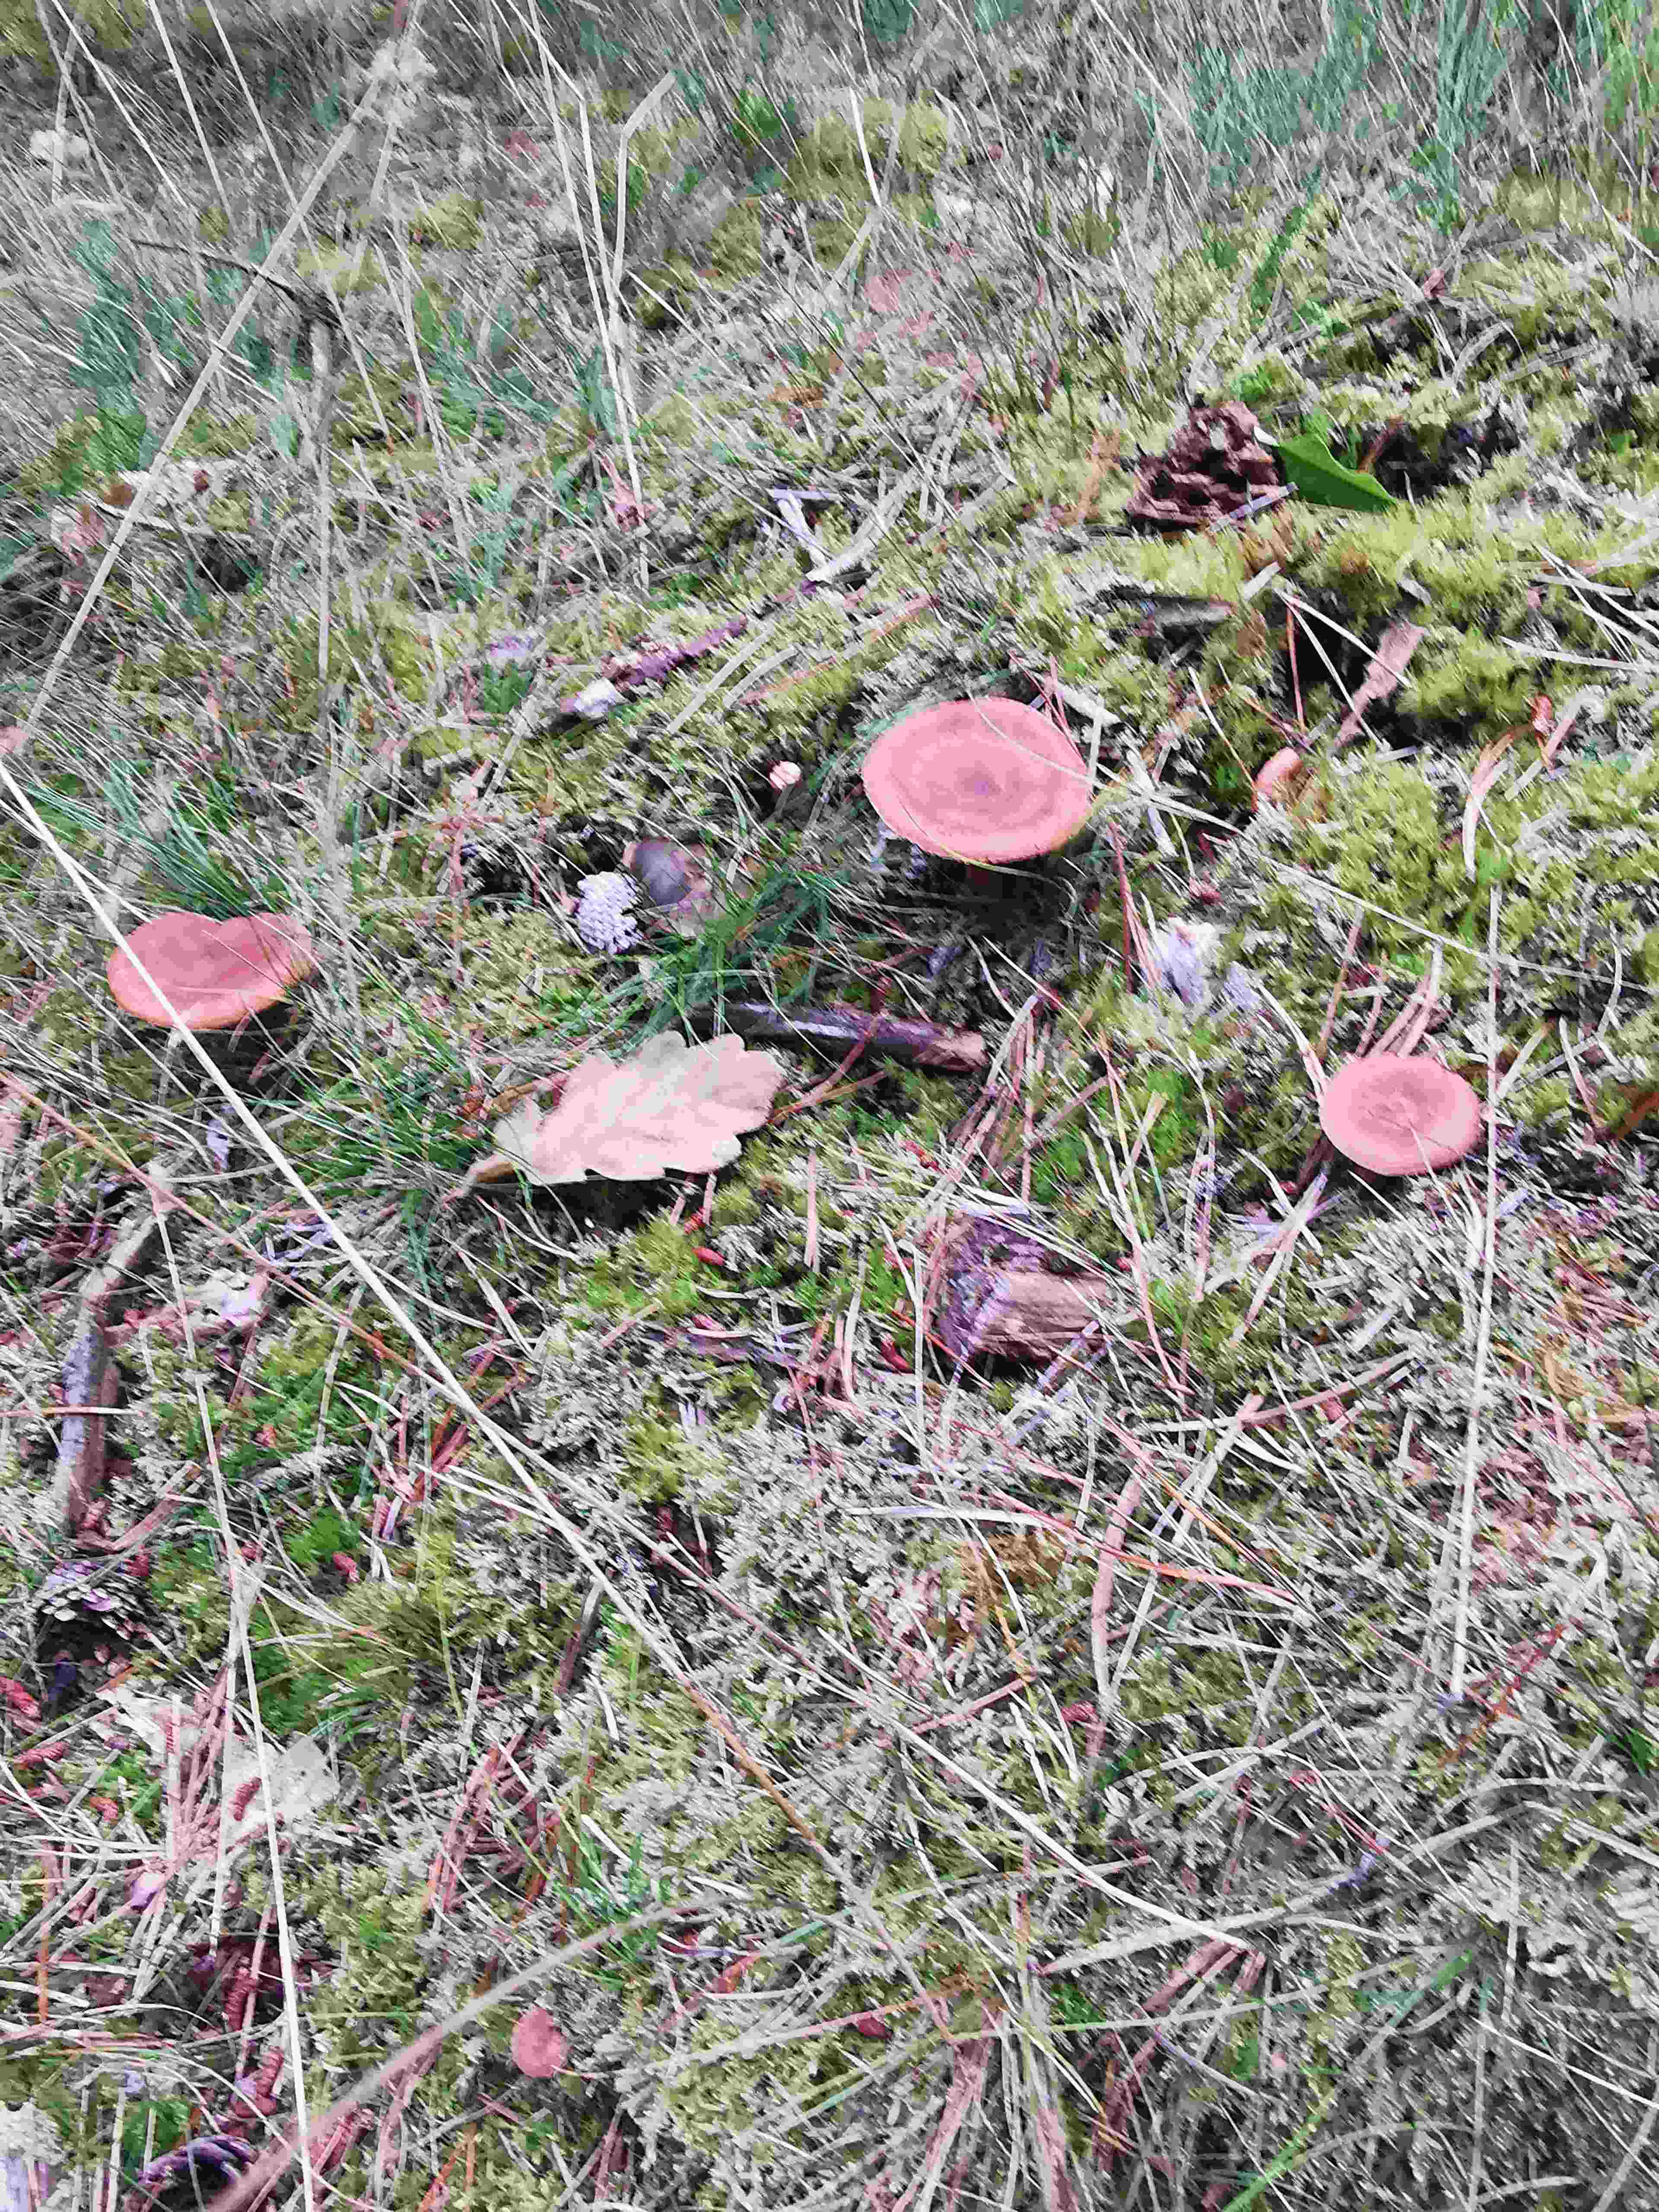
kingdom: Fungi
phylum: Basidiomycota
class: Agaricomycetes
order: Russulales
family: Russulaceae
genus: Lactarius
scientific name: Lactarius rufus
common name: rødbrun mælkehat
